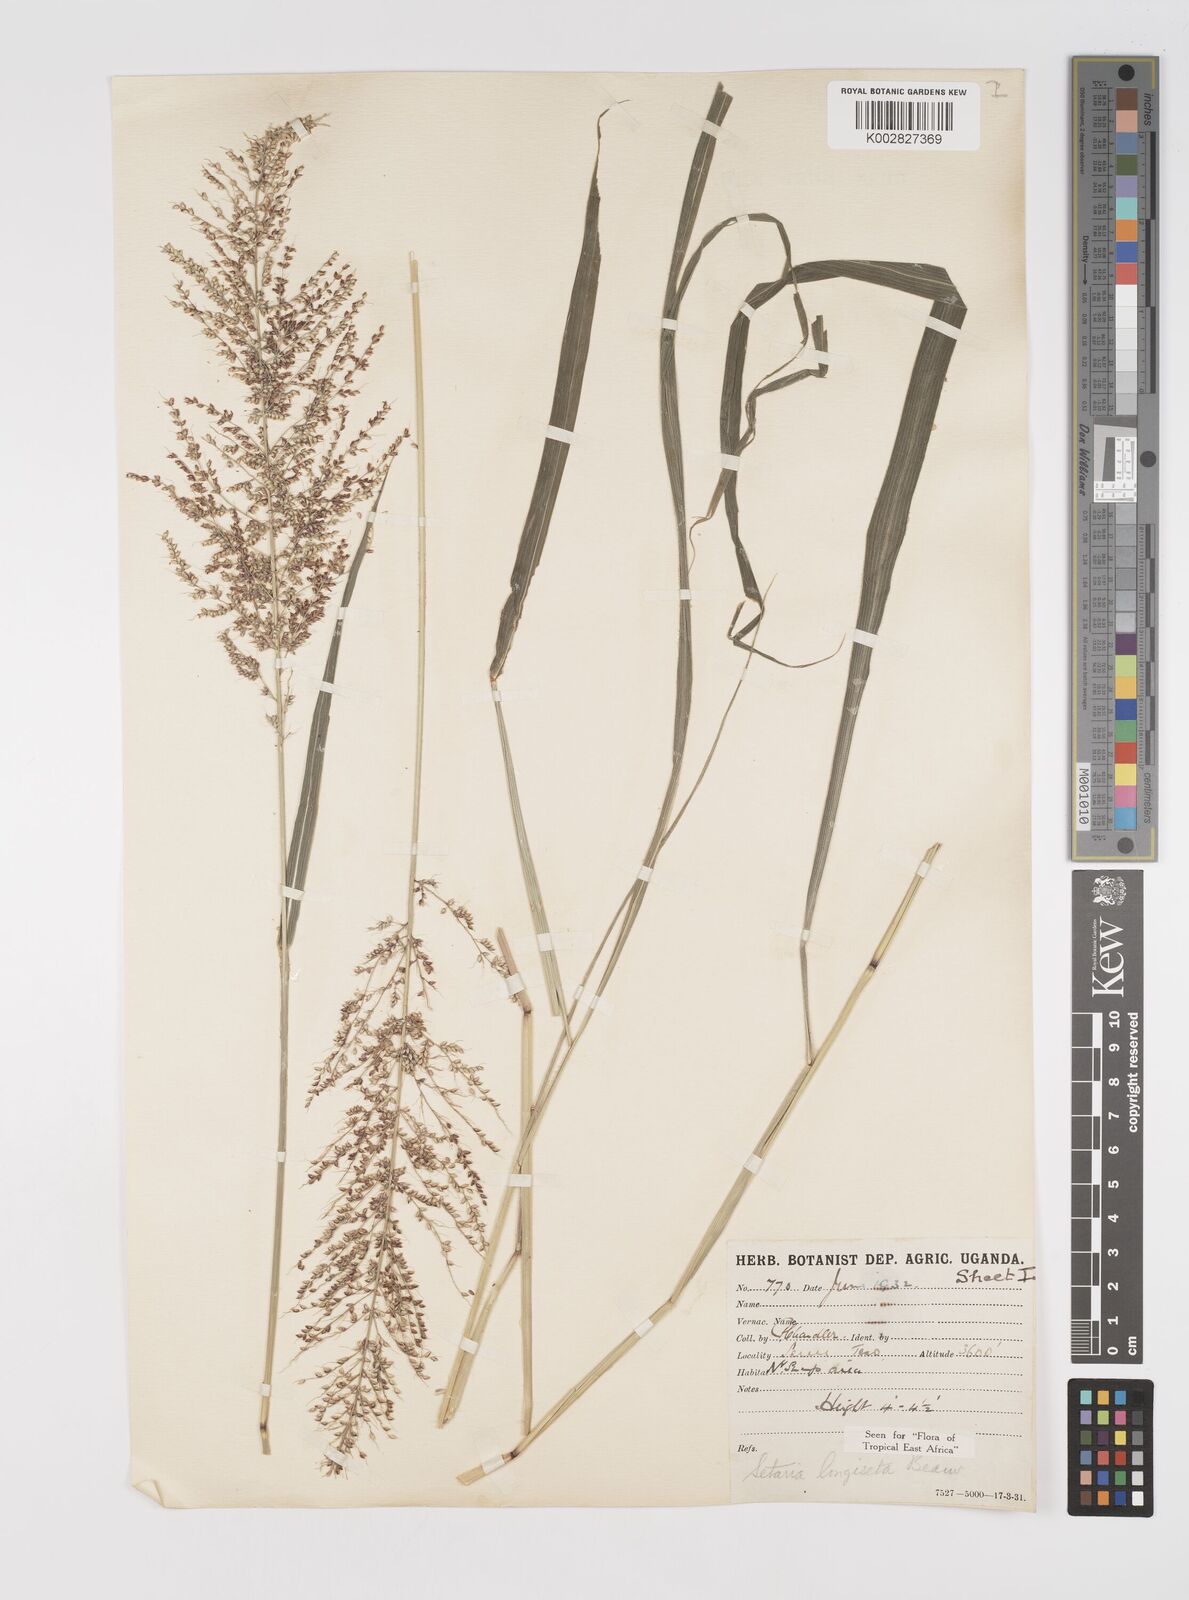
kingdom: Plantae
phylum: Tracheophyta
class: Liliopsida
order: Poales
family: Poaceae
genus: Setaria
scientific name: Setaria longiseta
